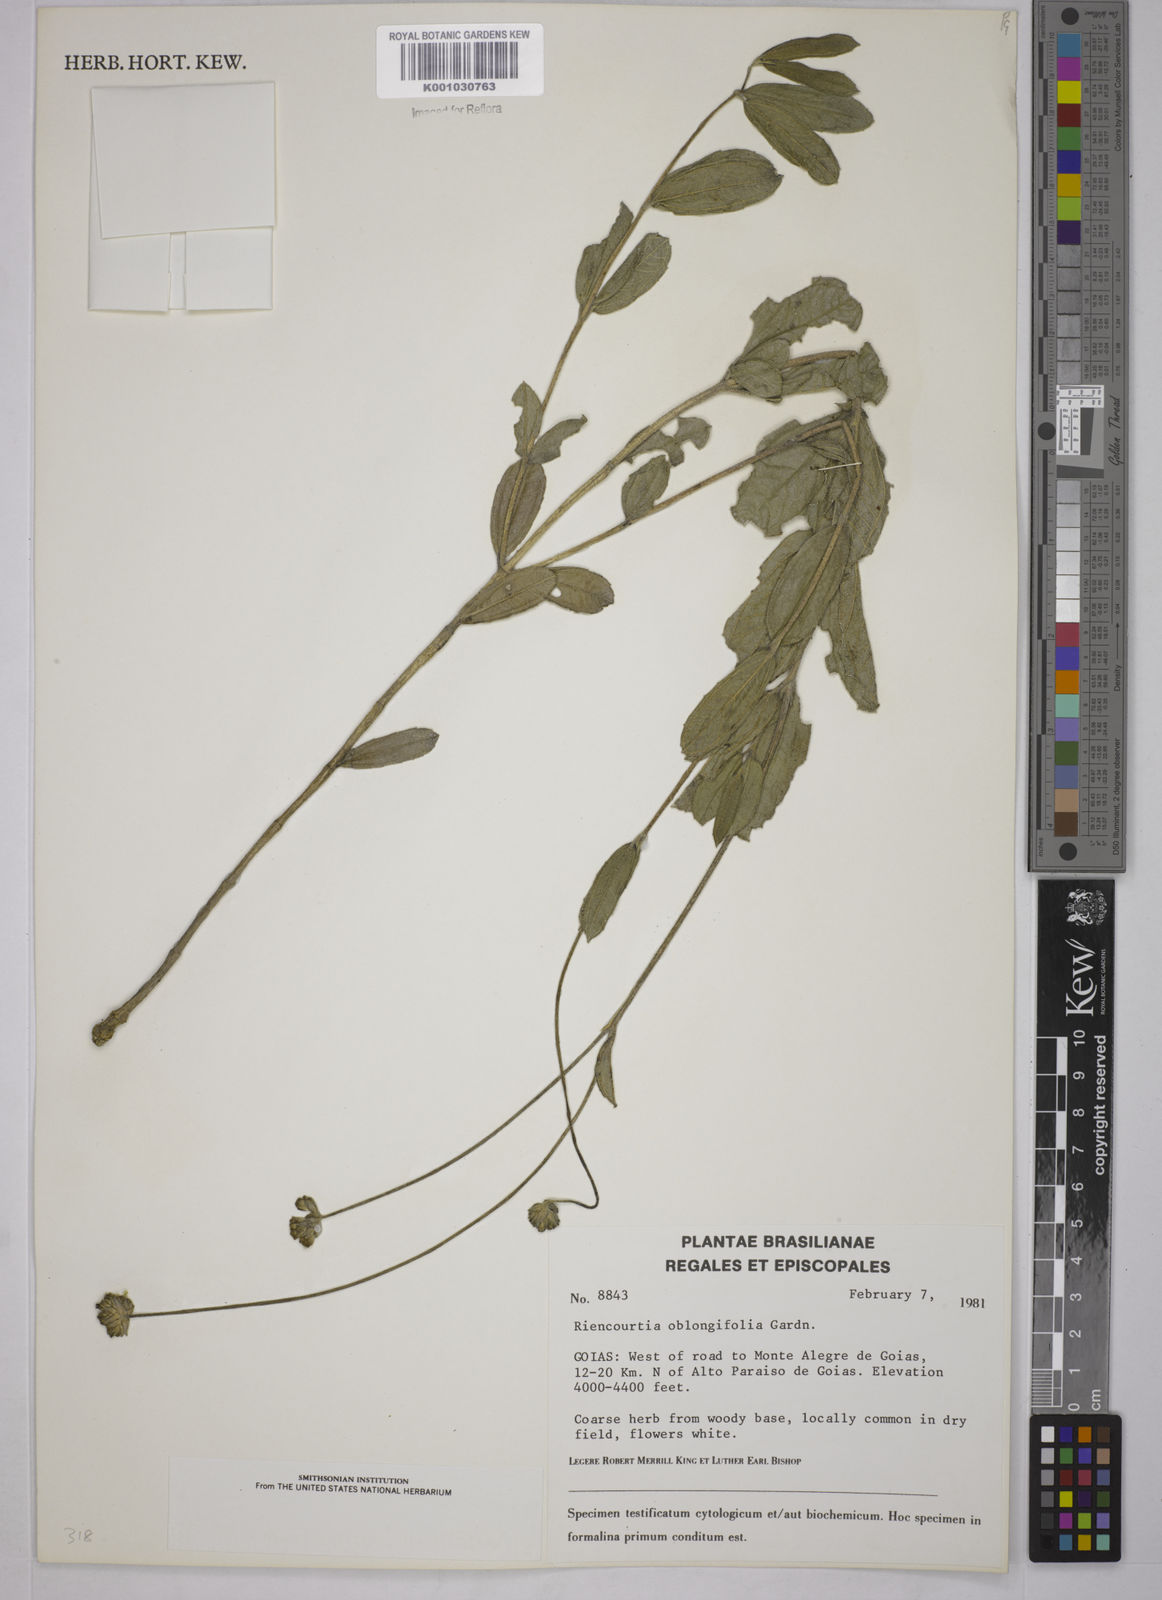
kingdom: Plantae
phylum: Tracheophyta
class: Magnoliopsida
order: Asterales
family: Asteraceae
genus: Riencourtia
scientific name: Riencourtia oblongifolia
